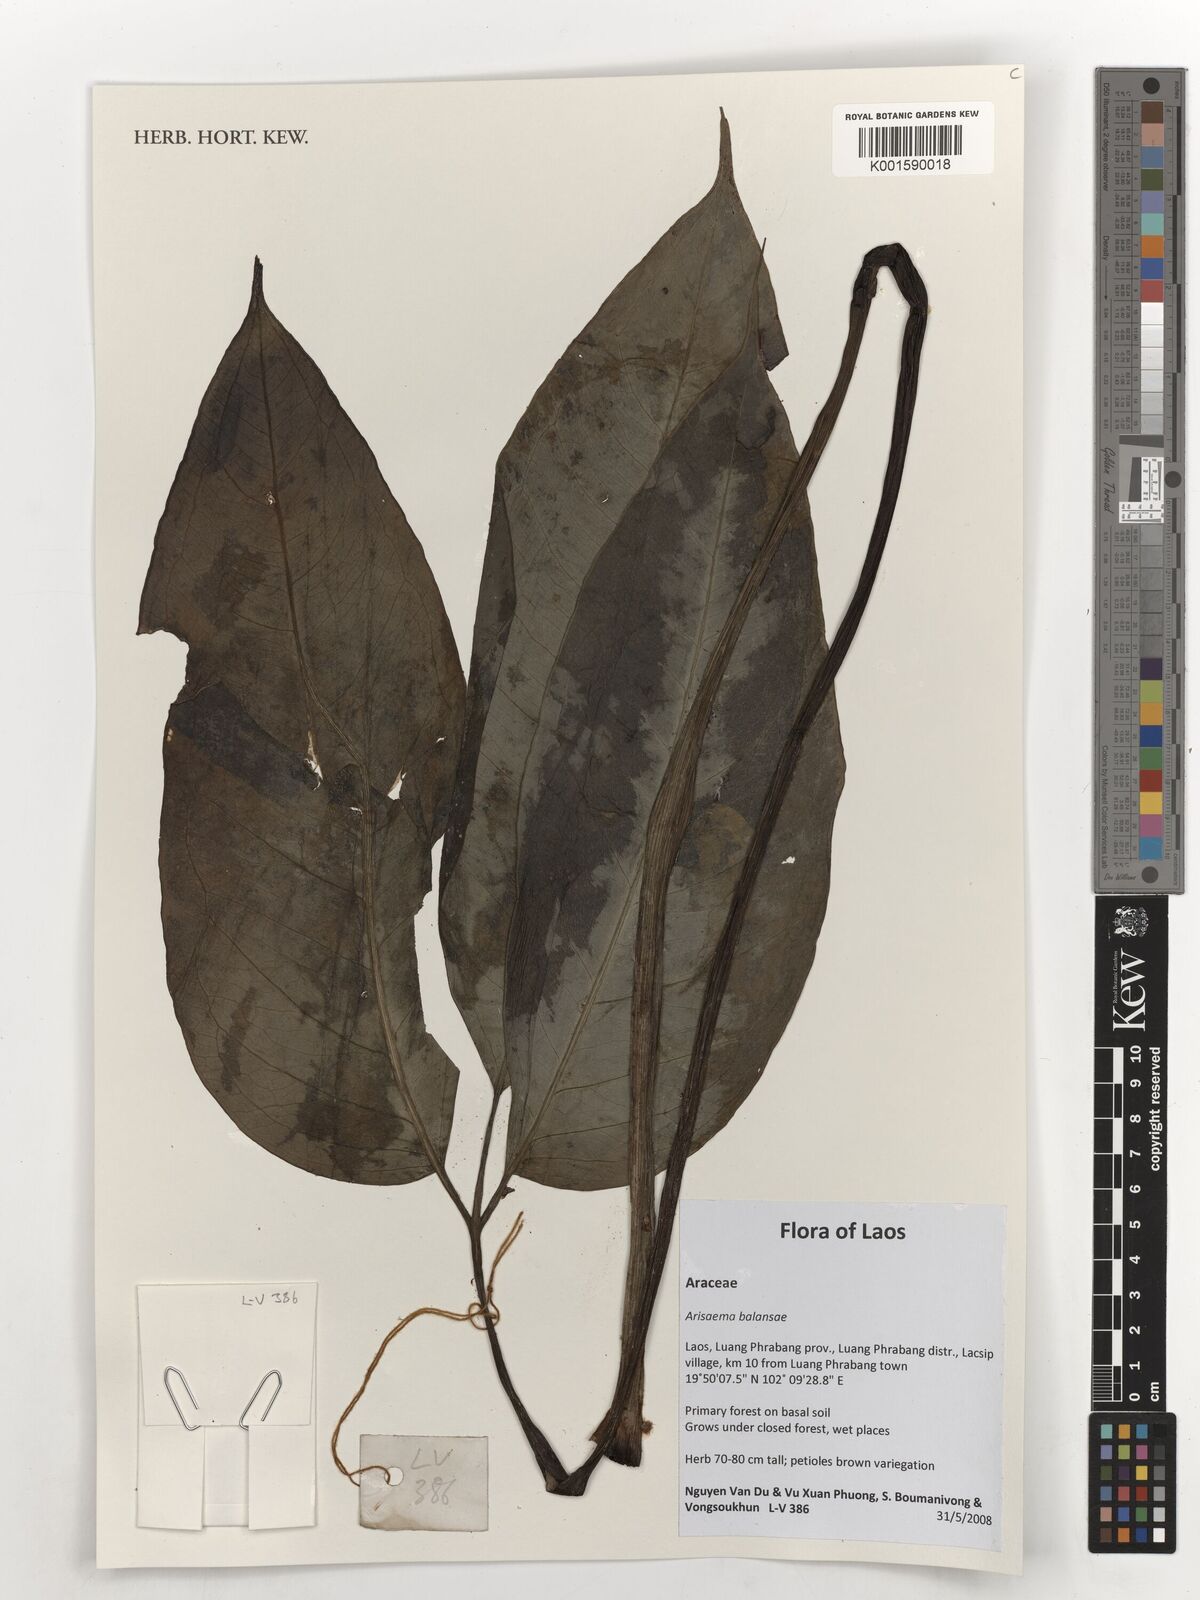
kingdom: Plantae
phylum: Tracheophyta
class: Liliopsida
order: Alismatales
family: Araceae
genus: Arisaema
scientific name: Arisaema balansae
